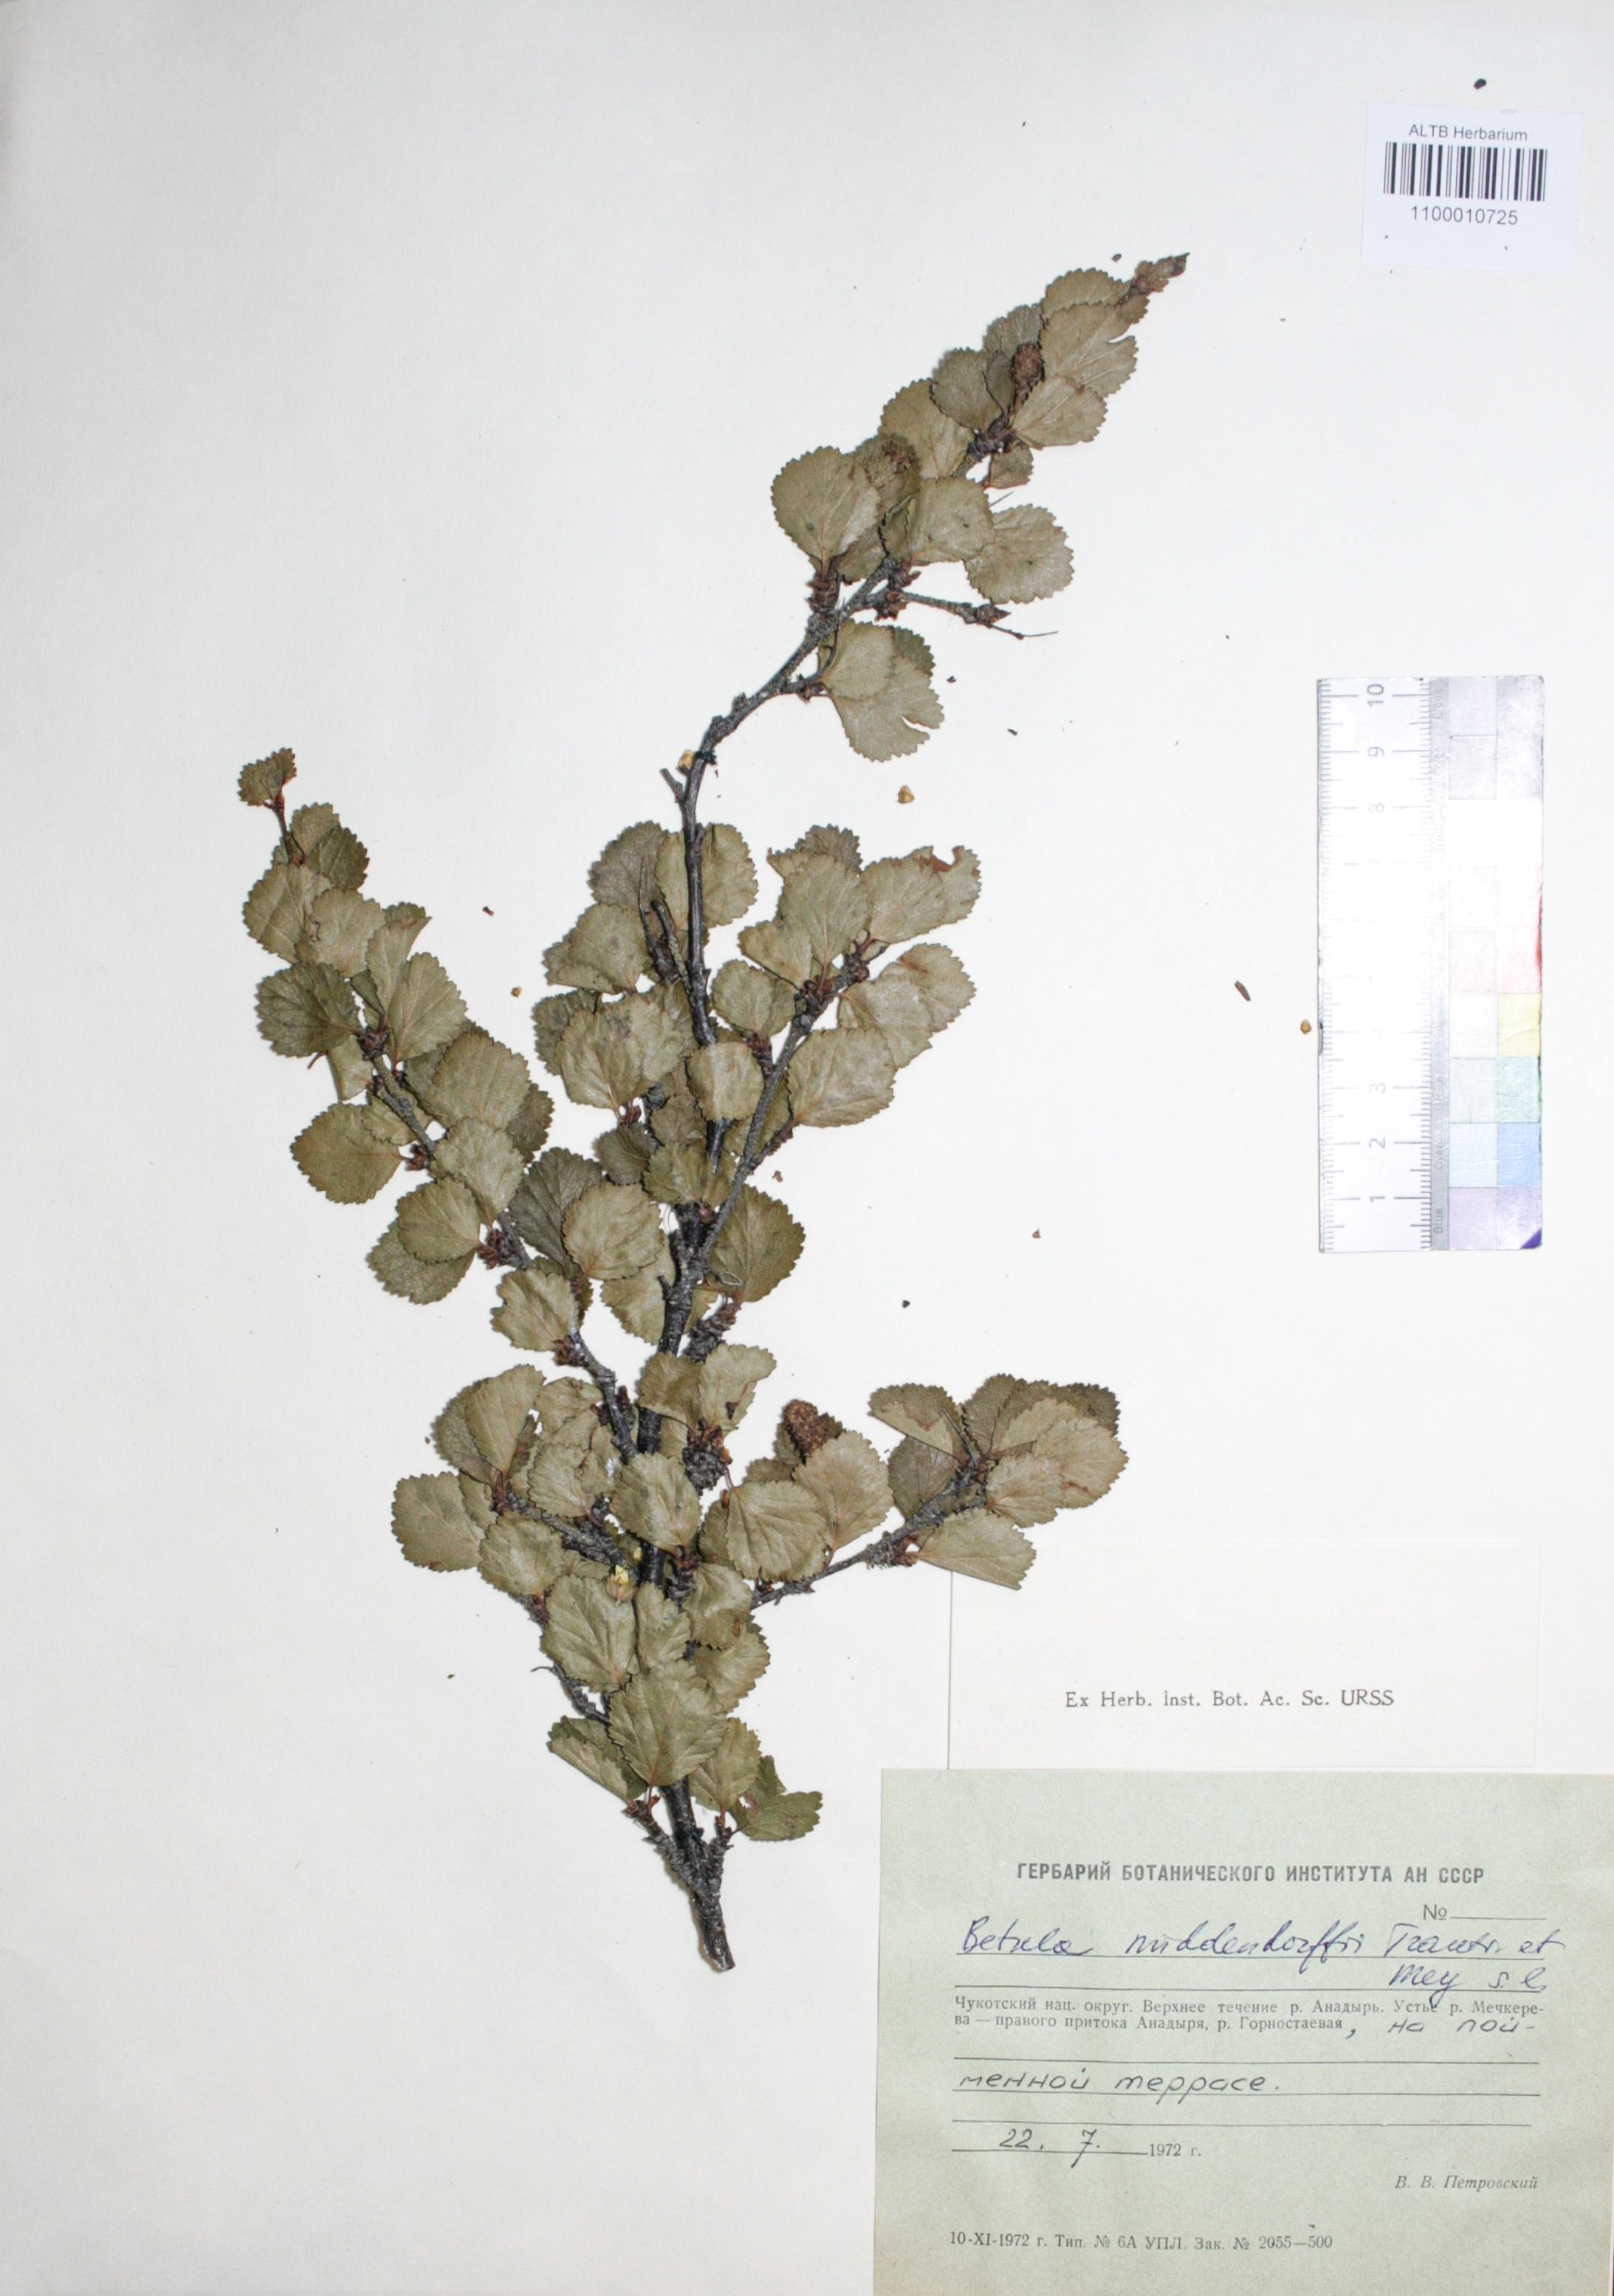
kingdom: Plantae
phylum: Tracheophyta
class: Magnoliopsida
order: Fagales
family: Betulaceae
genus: Betula
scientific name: Betula fruticosa
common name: Japanese bog birch
